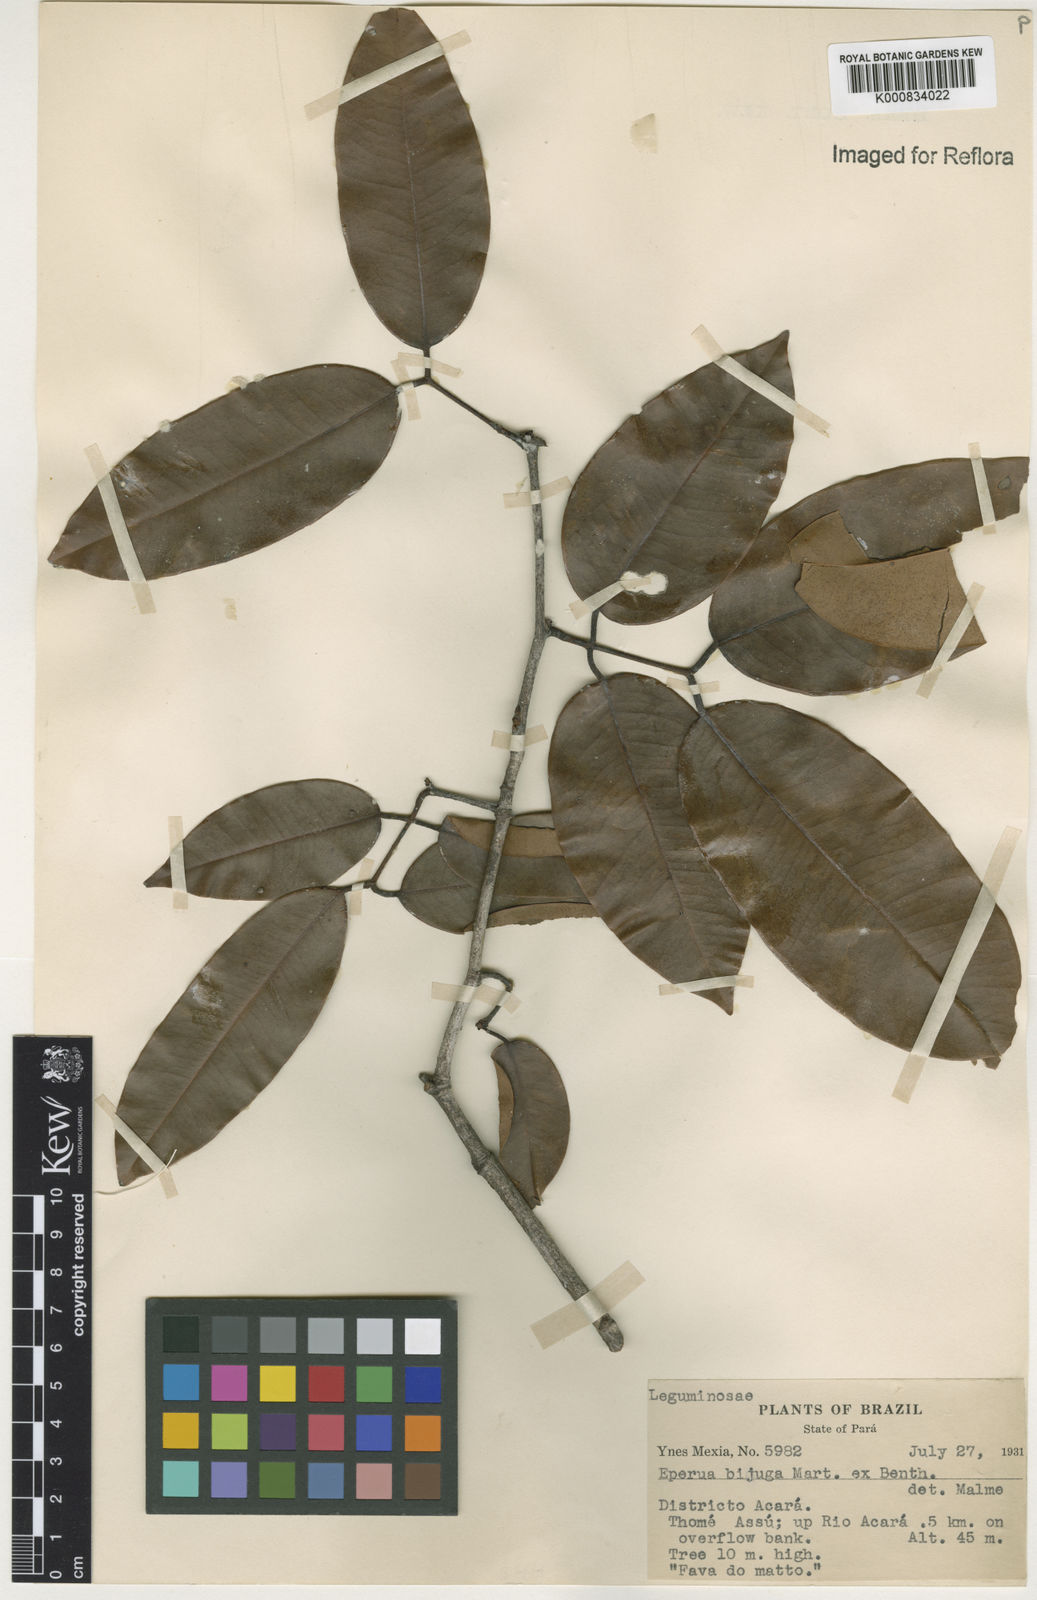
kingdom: Plantae
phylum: Tracheophyta
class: Magnoliopsida
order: Fabales
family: Fabaceae
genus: Eperua
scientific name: Eperua bijuga
